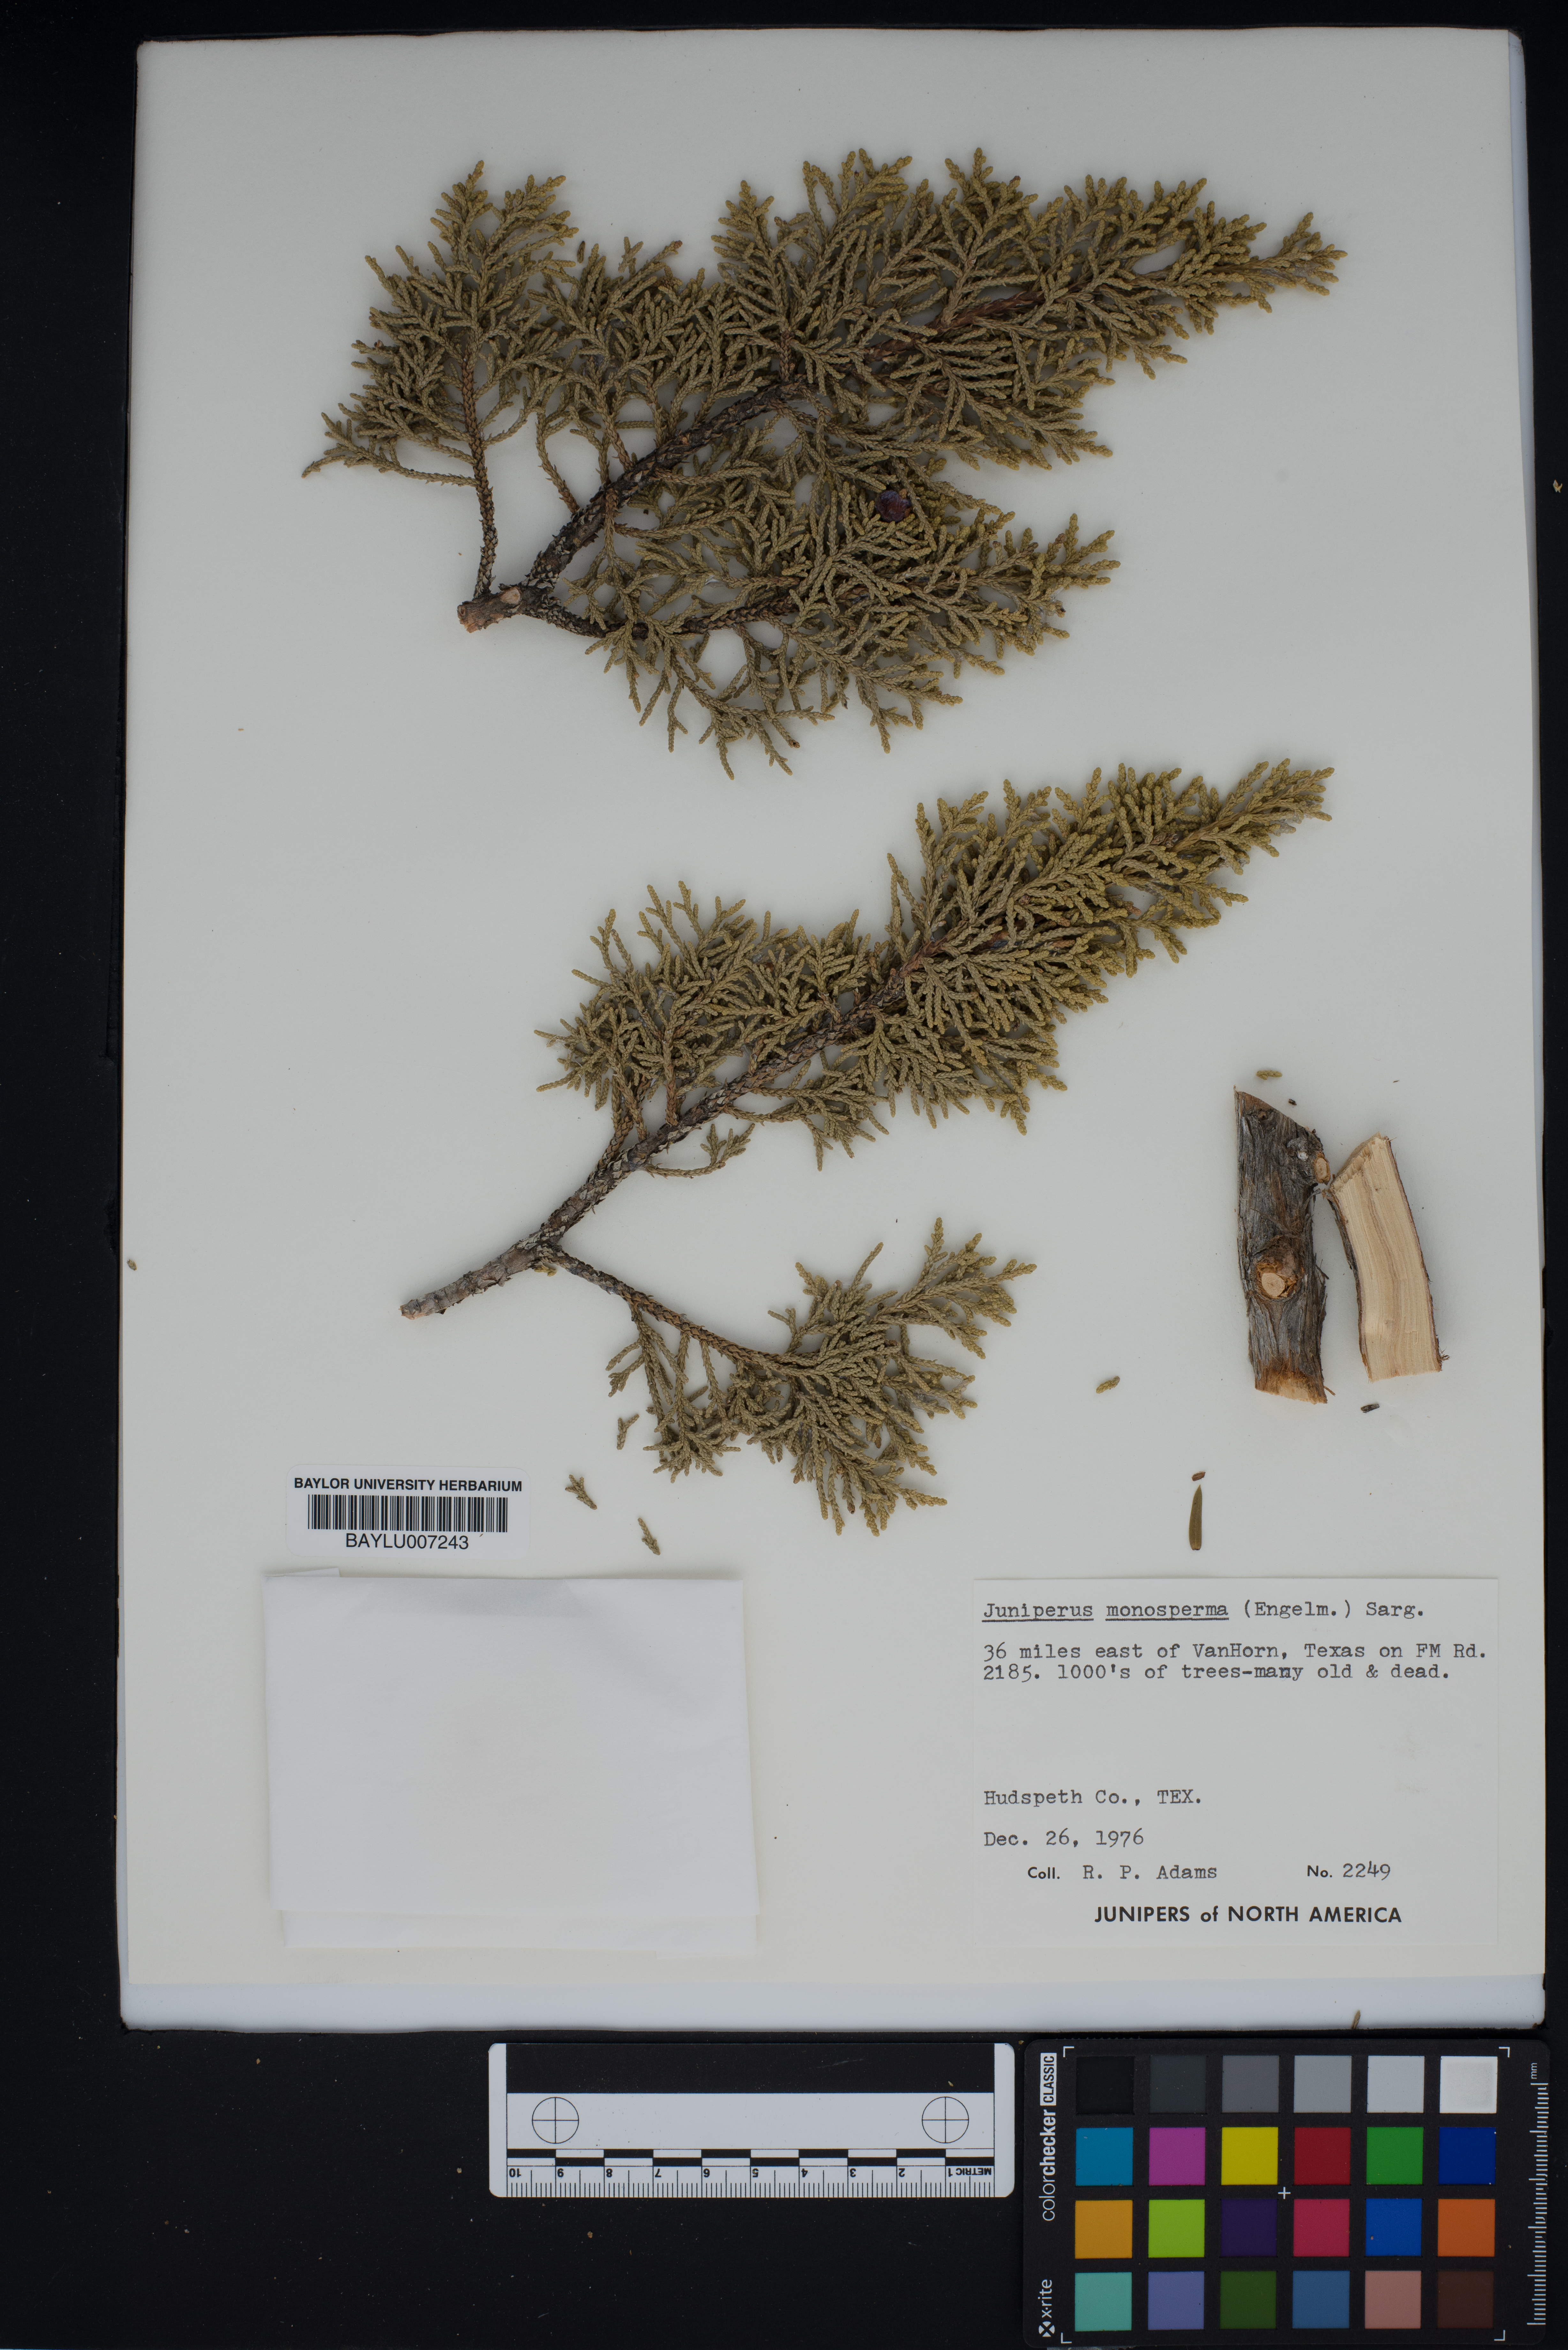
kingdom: Plantae
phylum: Tracheophyta
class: Pinopsida
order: Pinales
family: Cupressaceae
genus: Juniperus
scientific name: Juniperus monosperma
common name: One-seed juniper
